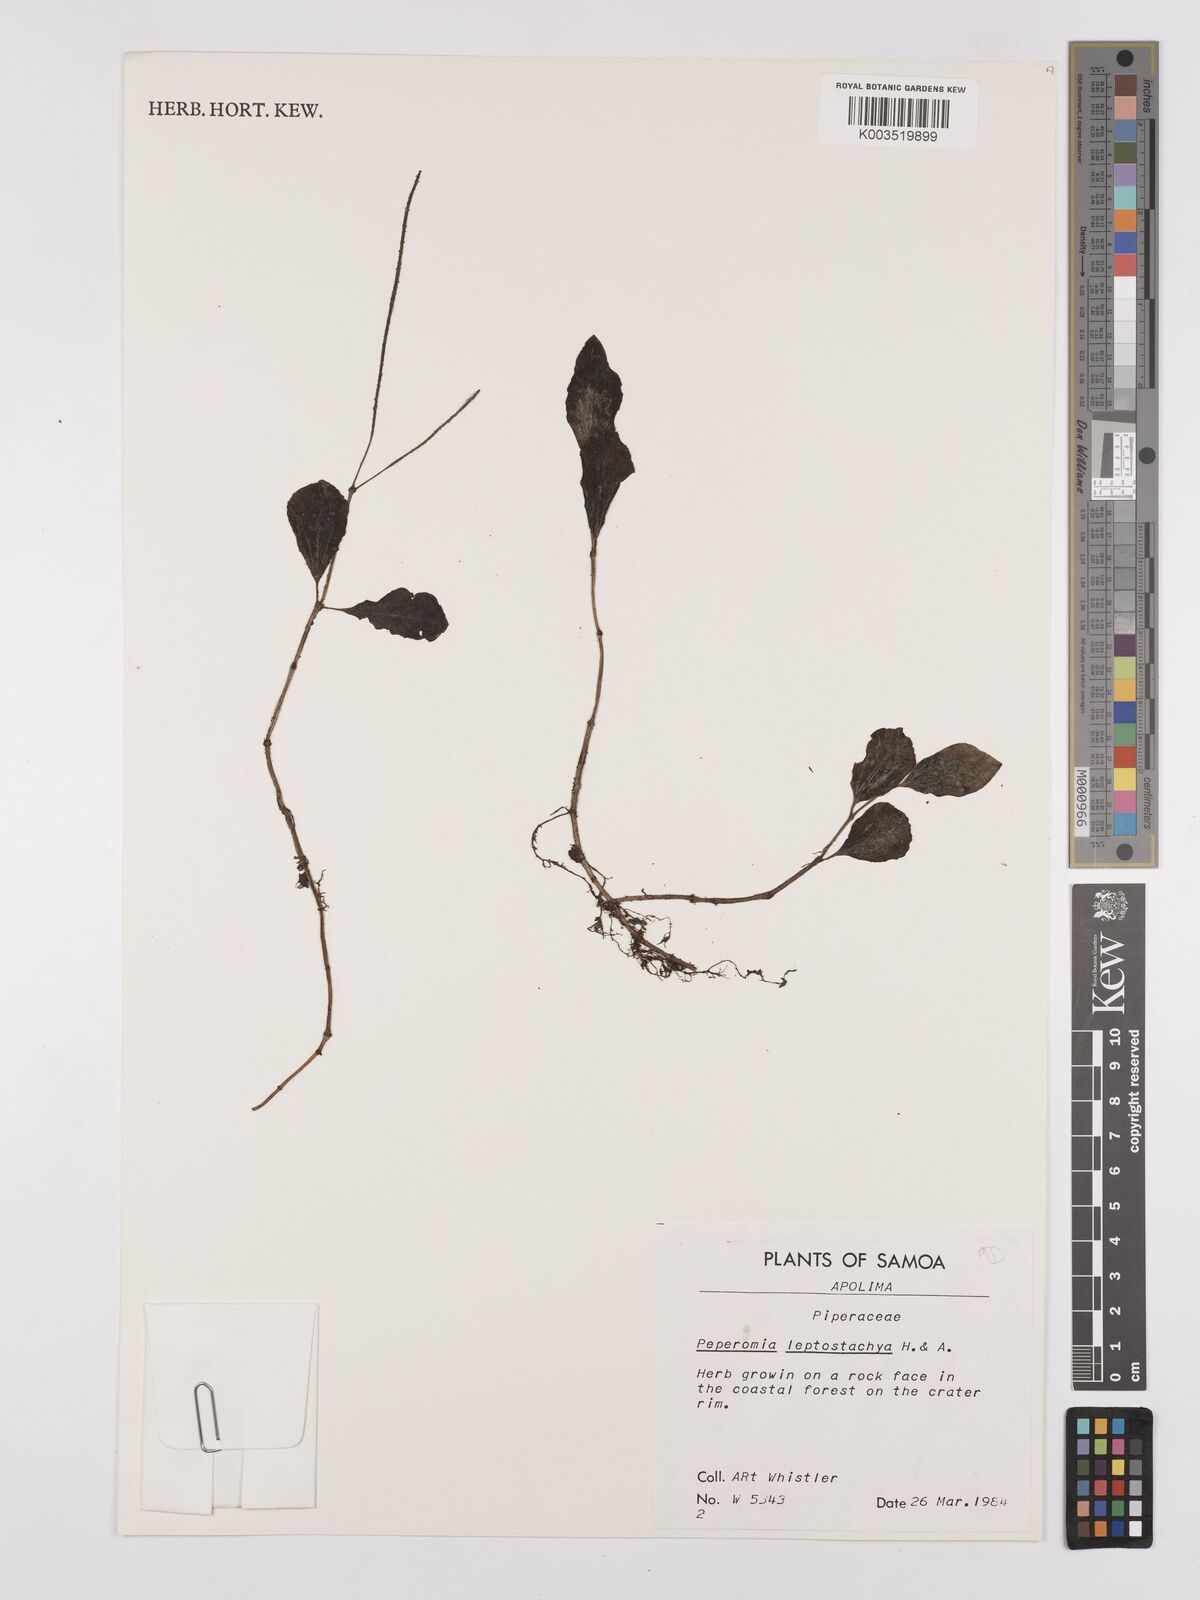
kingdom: Plantae
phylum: Tracheophyta
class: Magnoliopsida
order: Piperales
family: Piperaceae
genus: Peperomia
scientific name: Peperomia leptostachya
